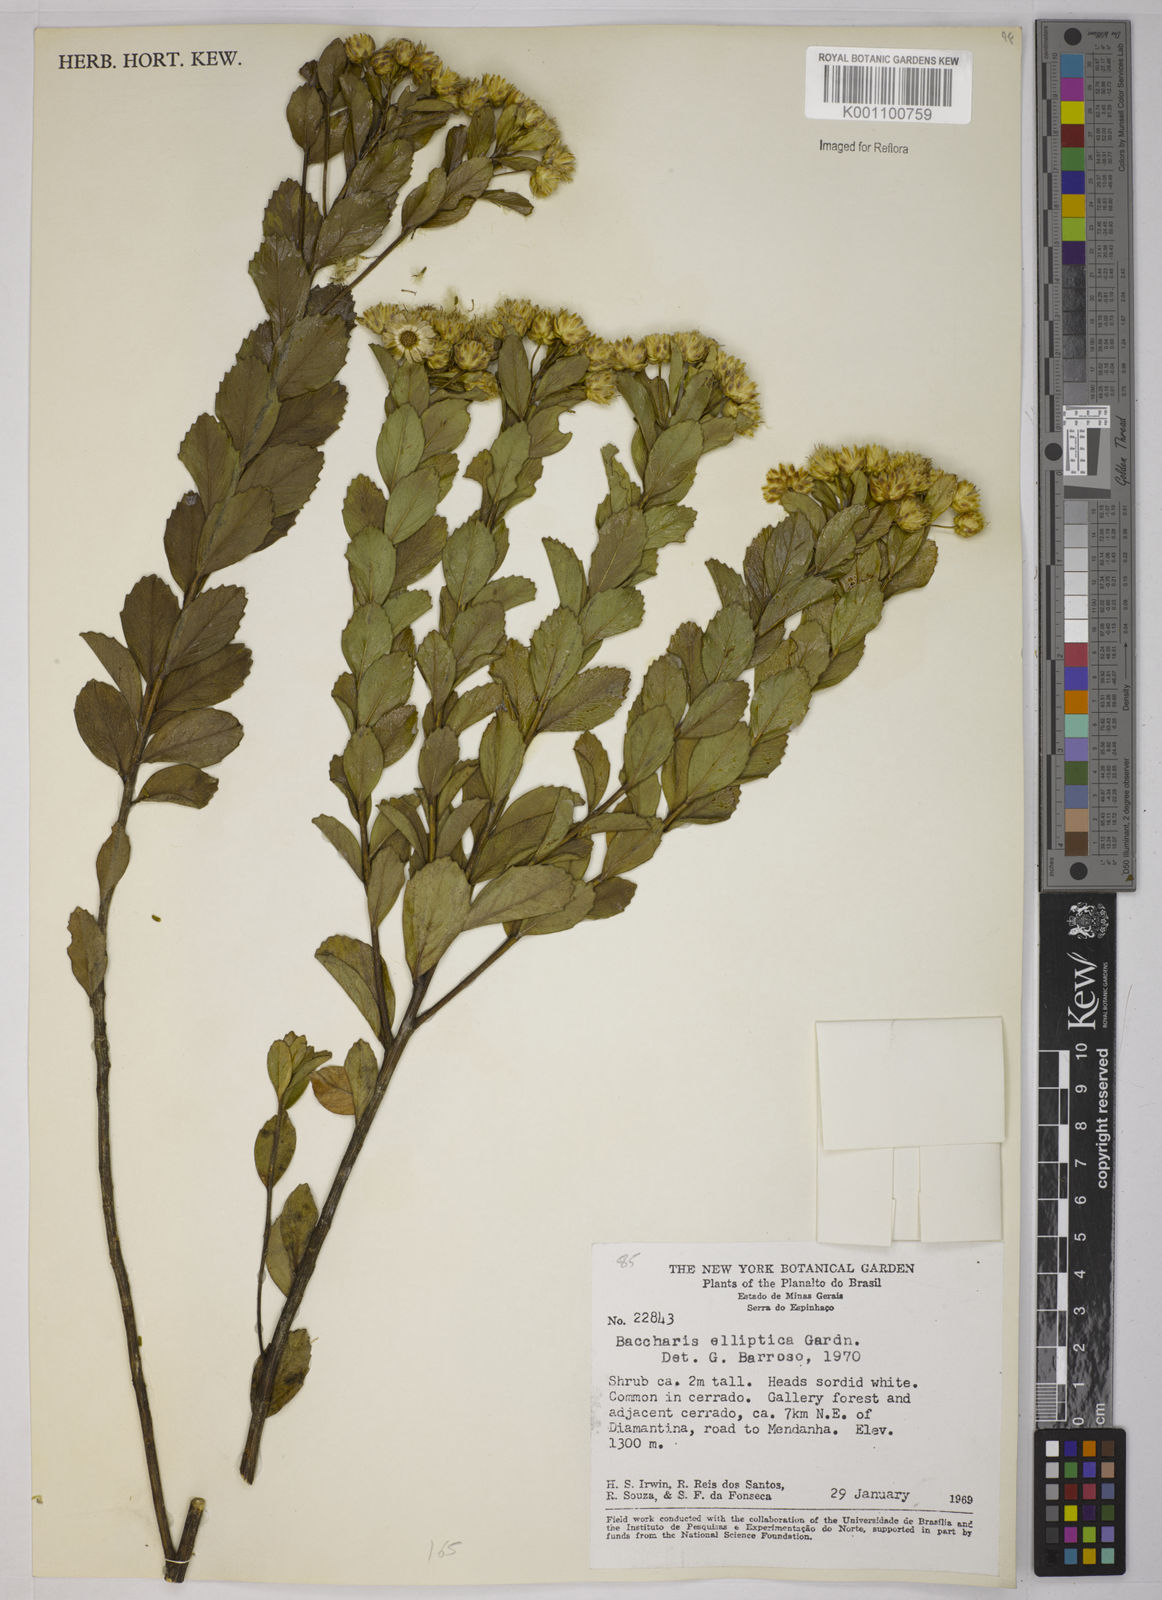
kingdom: Plantae
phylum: Tracheophyta
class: Magnoliopsida
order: Asterales
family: Asteraceae
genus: Baccharis
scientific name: Baccharis elliptica
